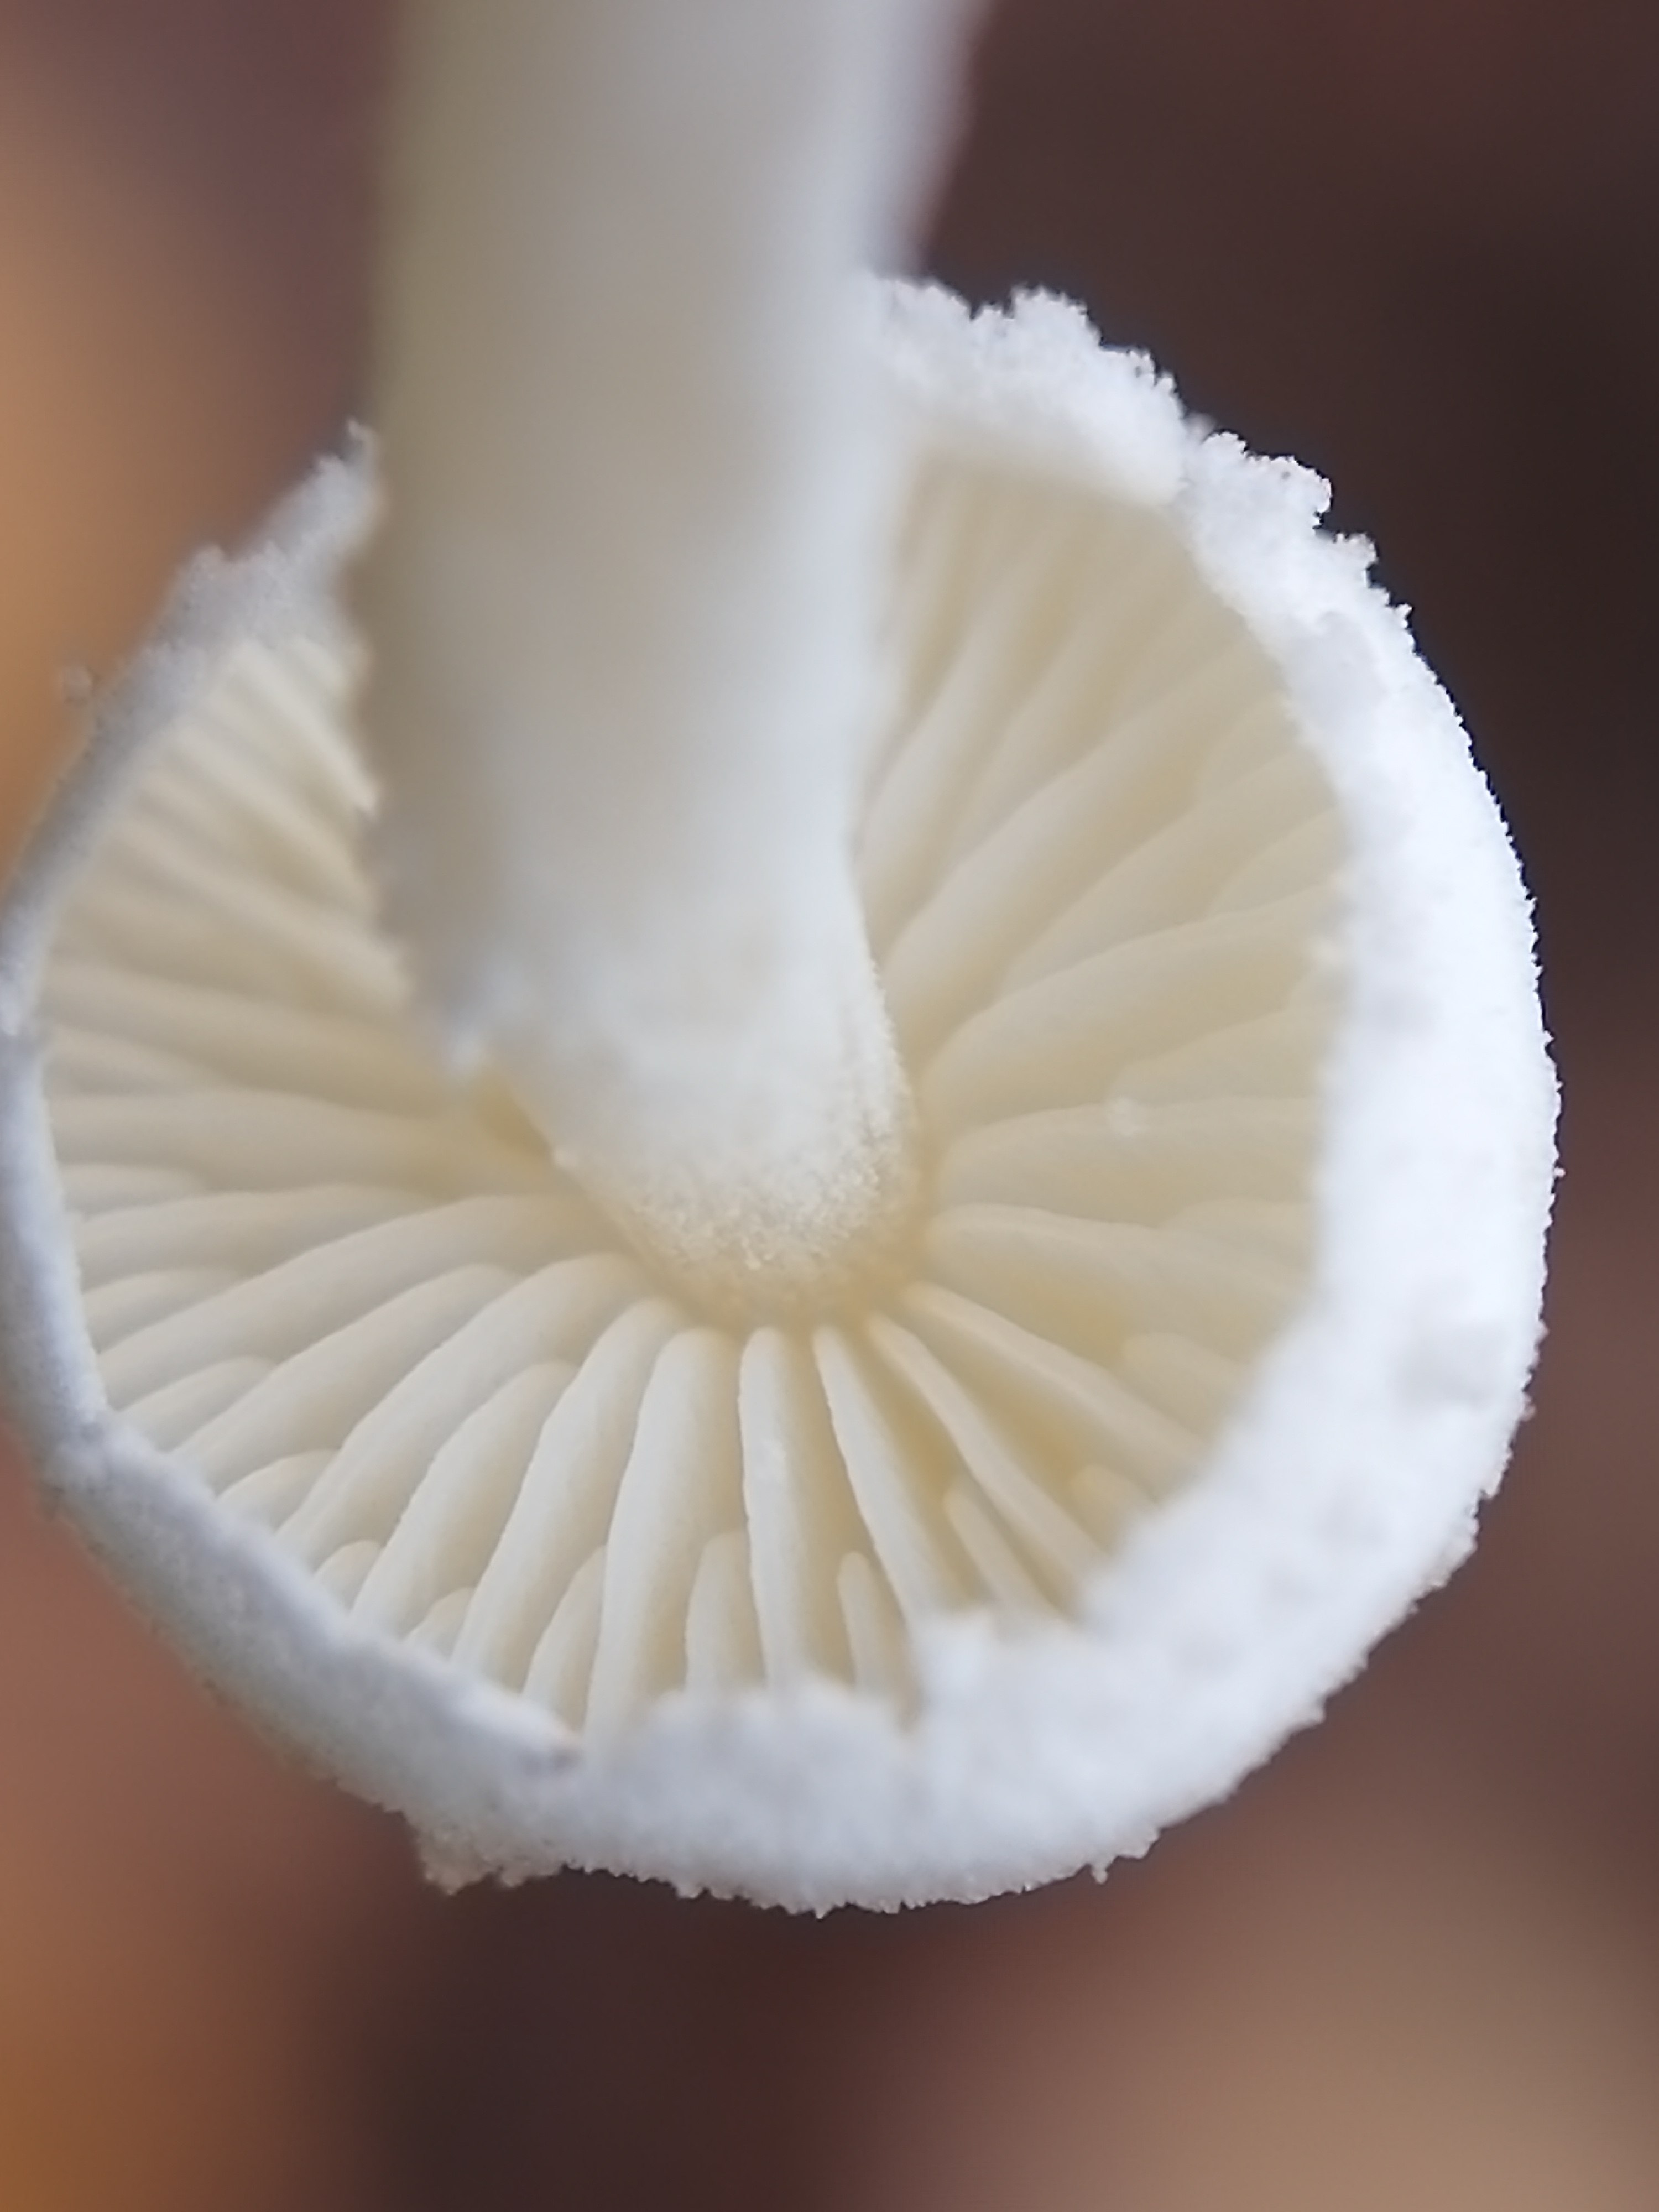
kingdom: Fungi
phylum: Basidiomycota
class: Agaricomycetes
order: Agaricales
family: Agaricaceae
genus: Cystolepiota
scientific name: Cystolepiota seminuda
